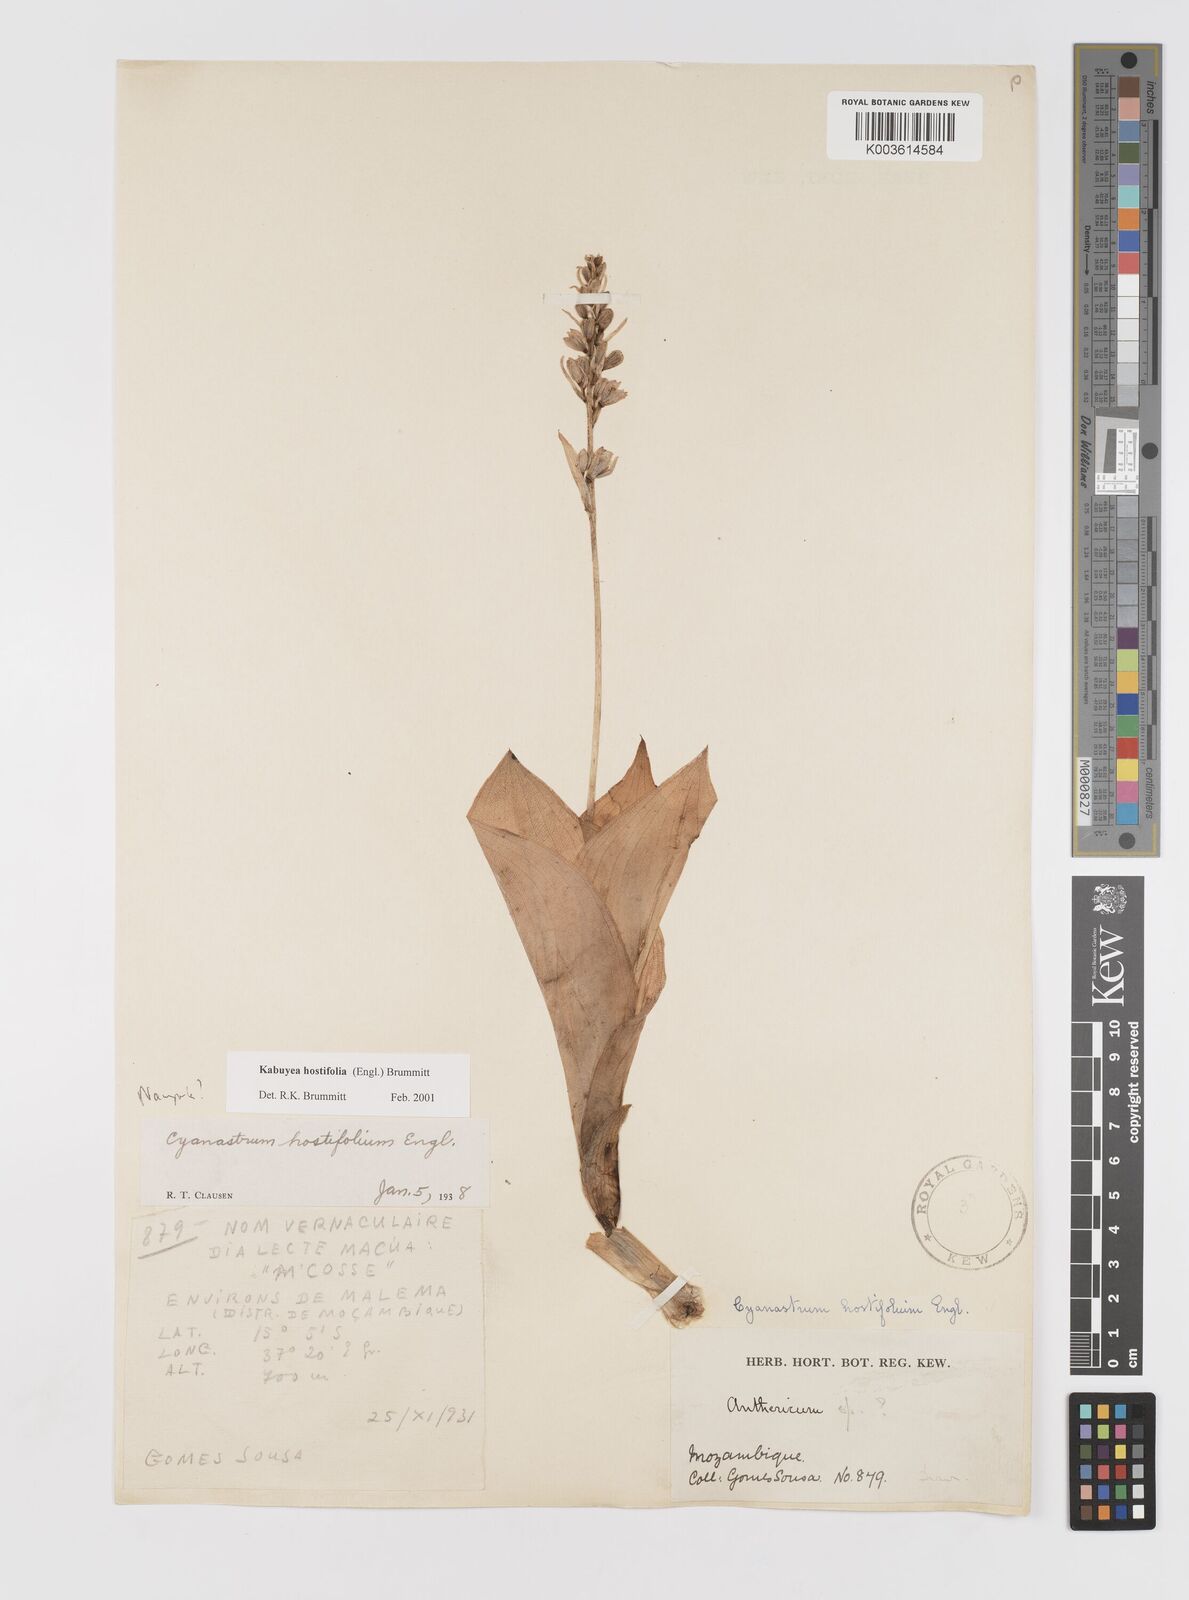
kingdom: Plantae
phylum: Tracheophyta
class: Liliopsida
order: Asparagales
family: Tecophilaeaceae
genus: Kabuyea
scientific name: Kabuyea hostifolia
